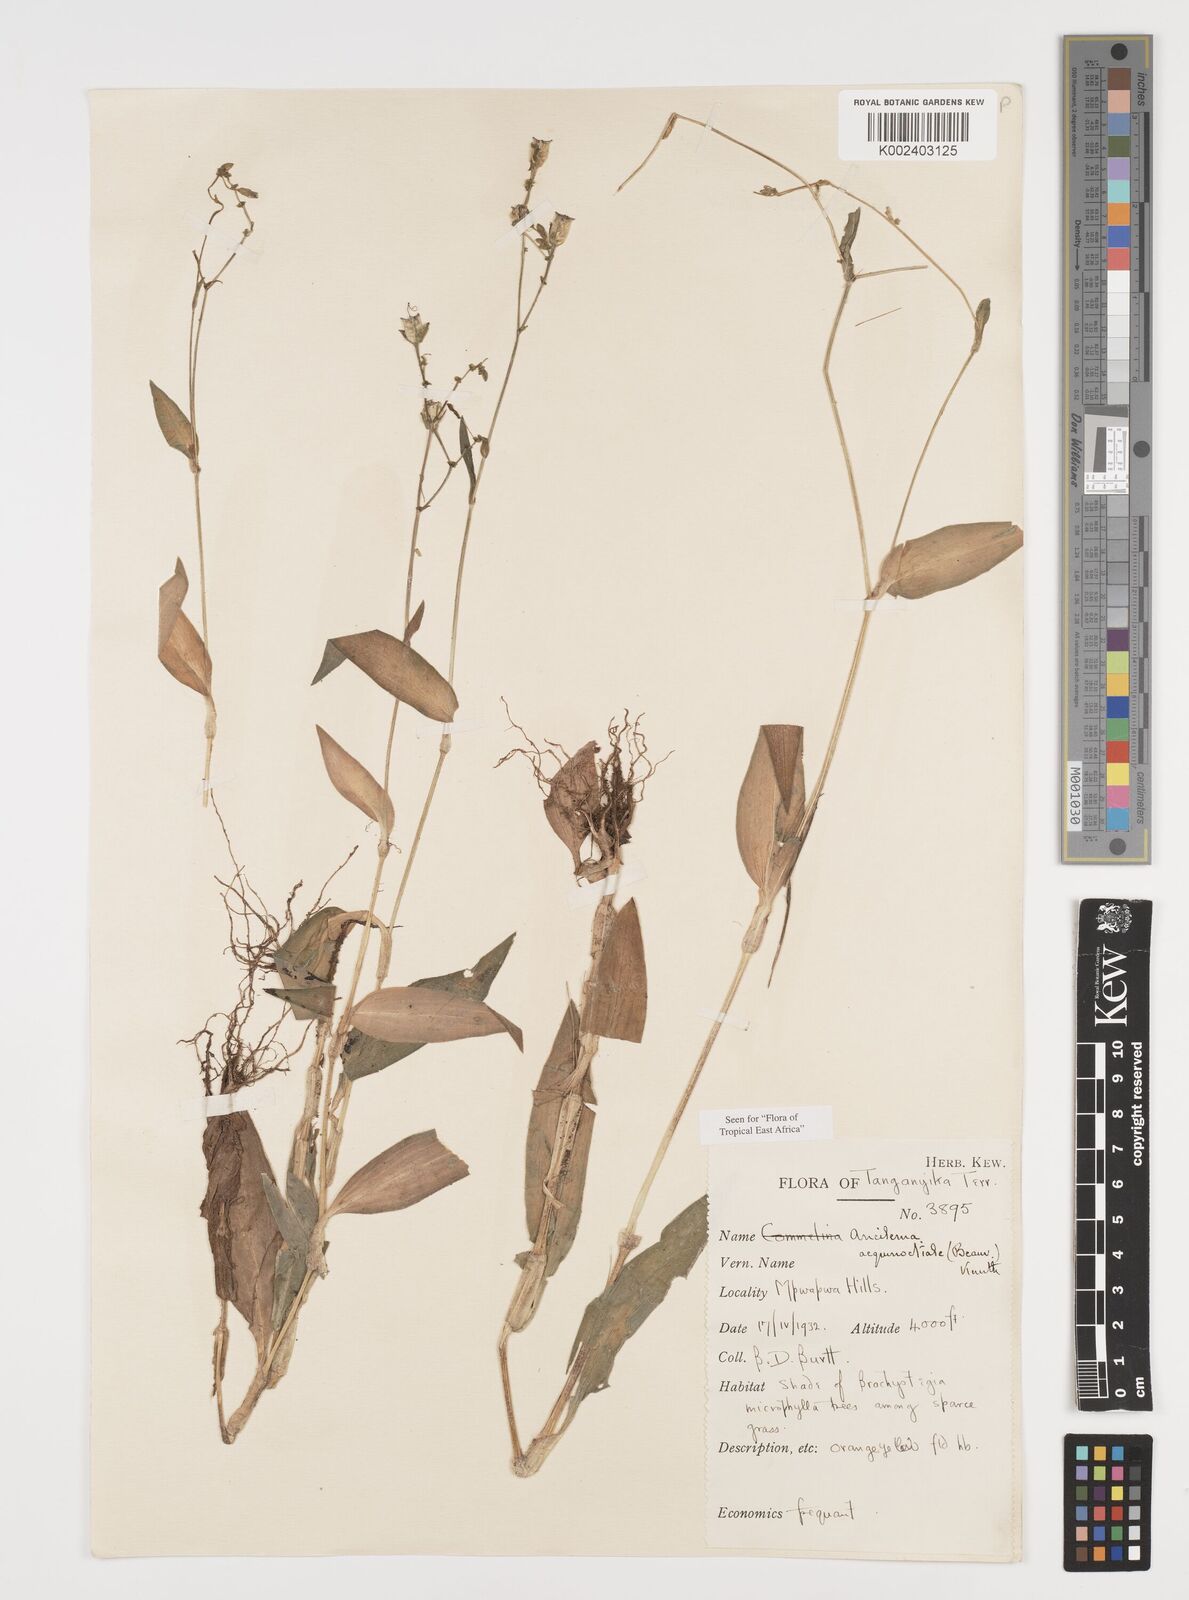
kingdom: Plantae
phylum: Tracheophyta
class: Liliopsida
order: Commelinales
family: Commelinaceae
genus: Aneilema
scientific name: Aneilema aequinoctiale
